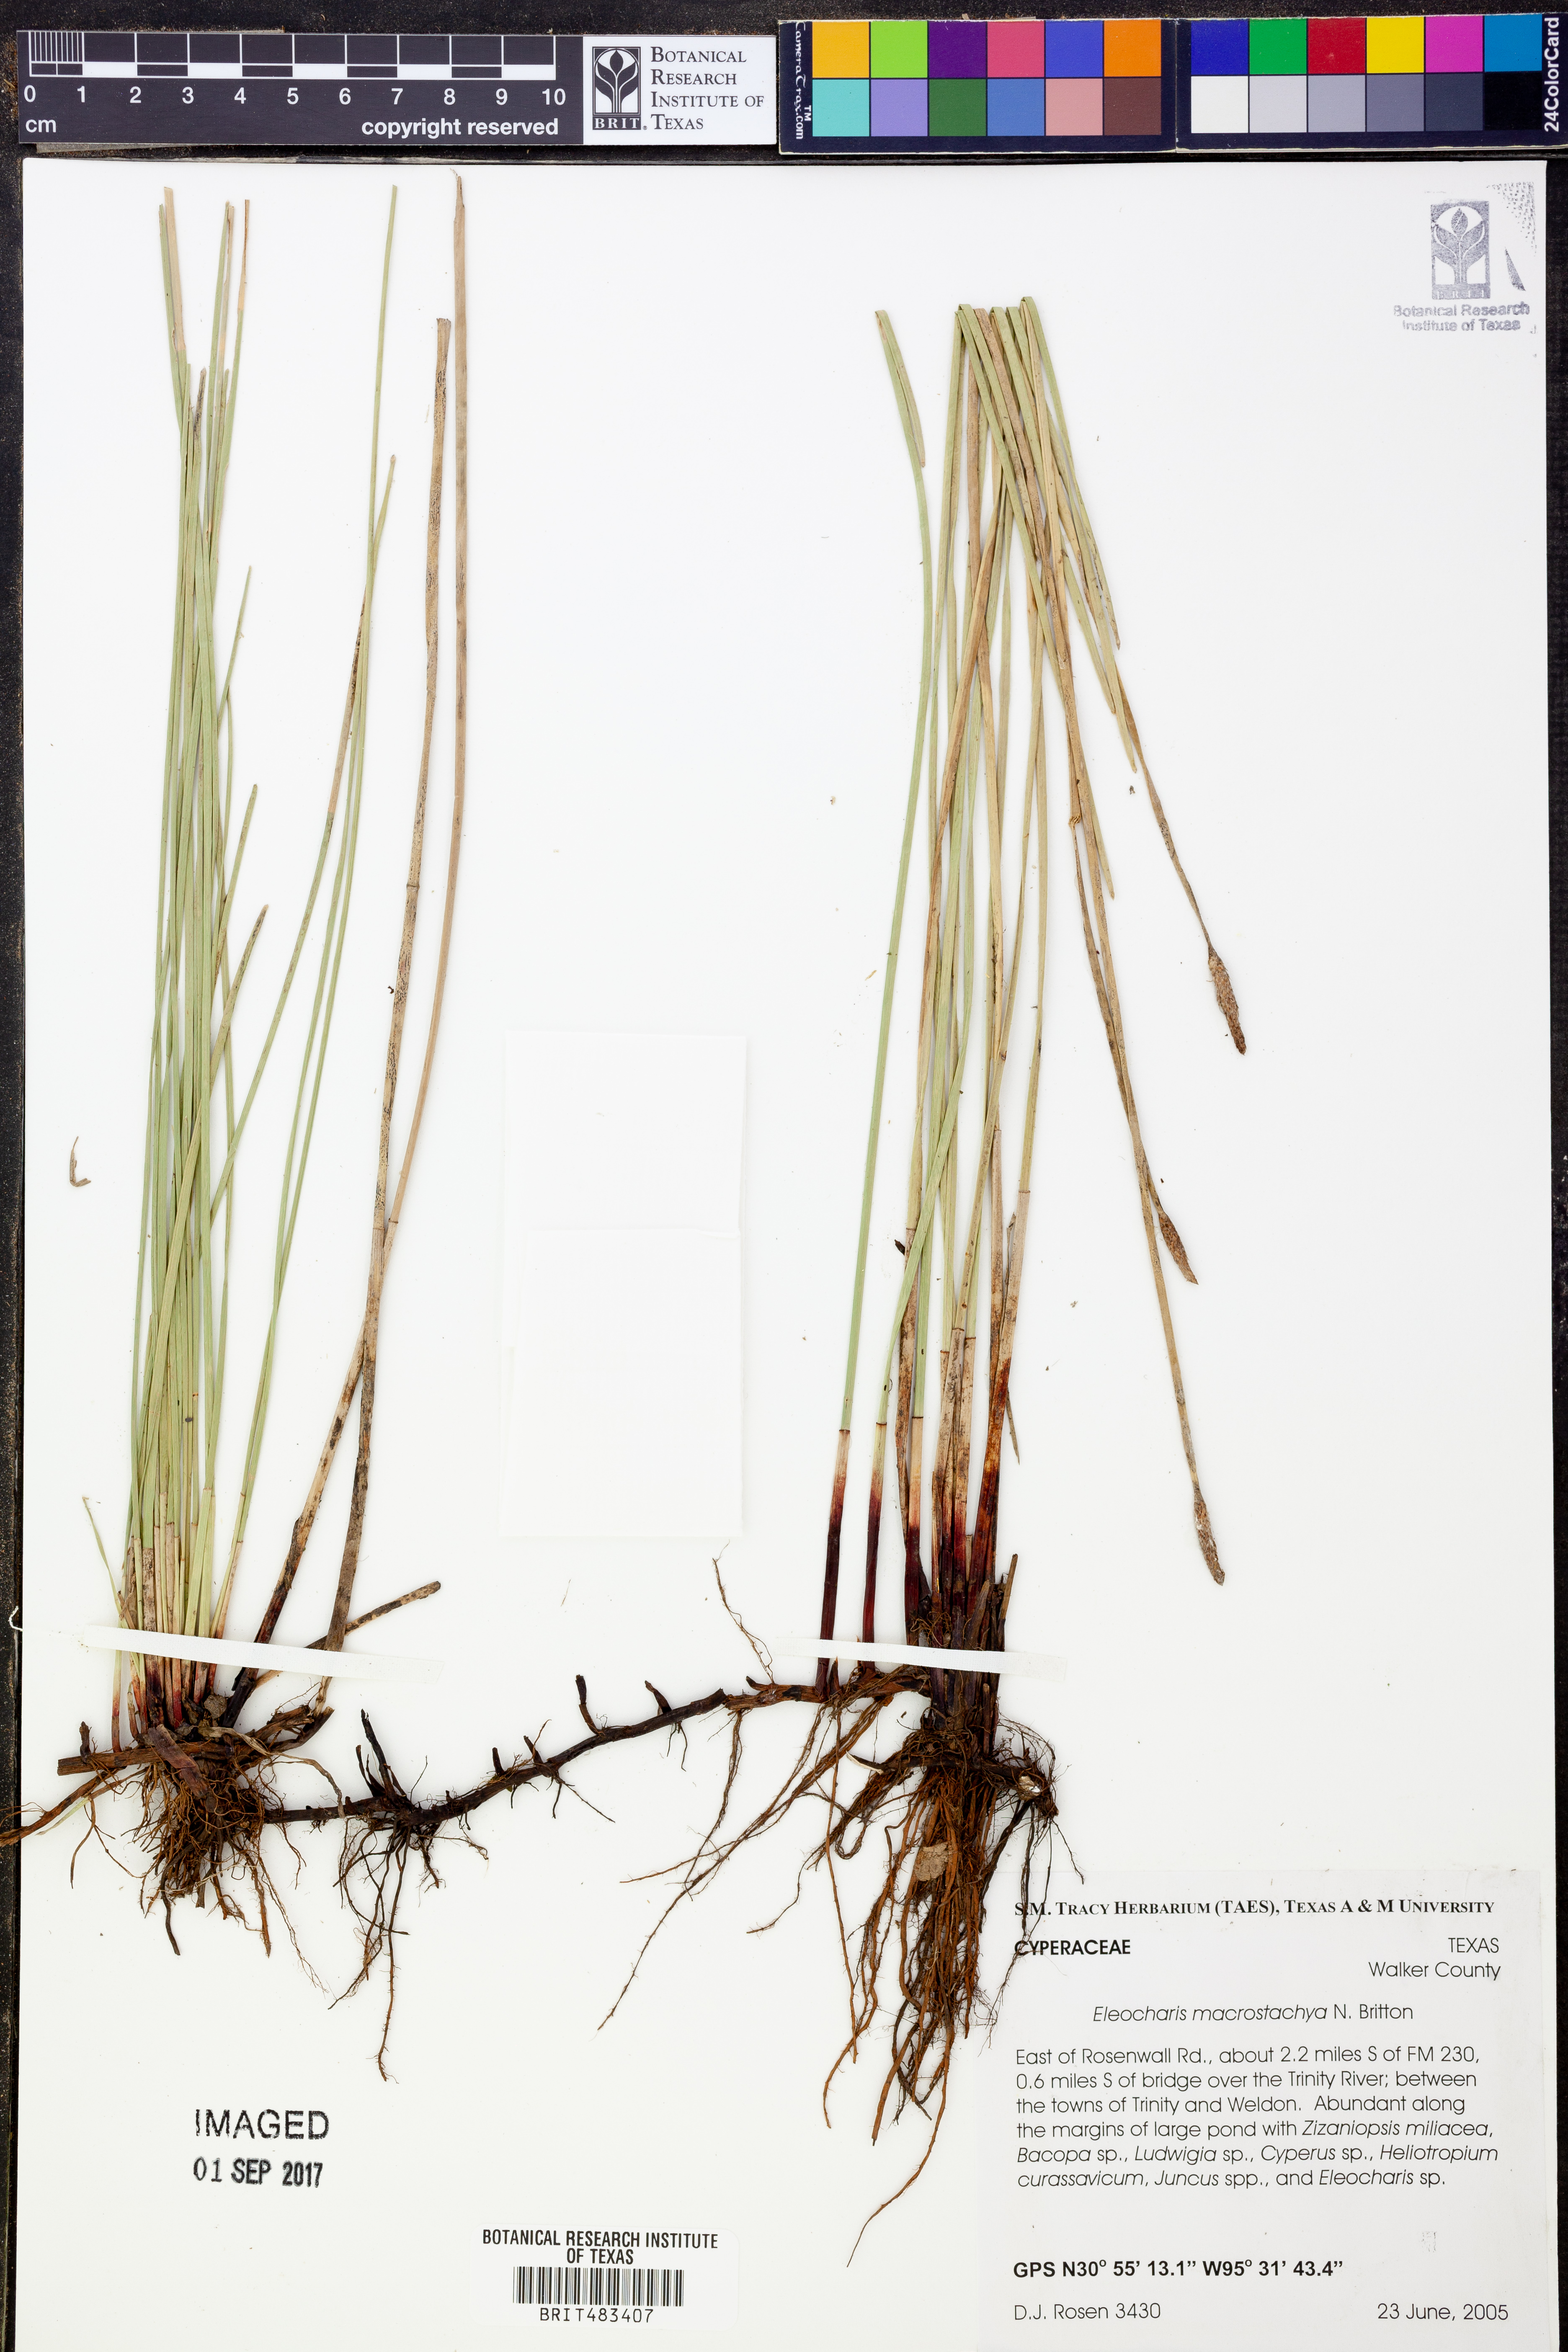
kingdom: Plantae
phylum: Tracheophyta
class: Liliopsida
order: Poales
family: Cyperaceae
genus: Eleocharis
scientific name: Eleocharis macrostachya
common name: Pale spikerush
